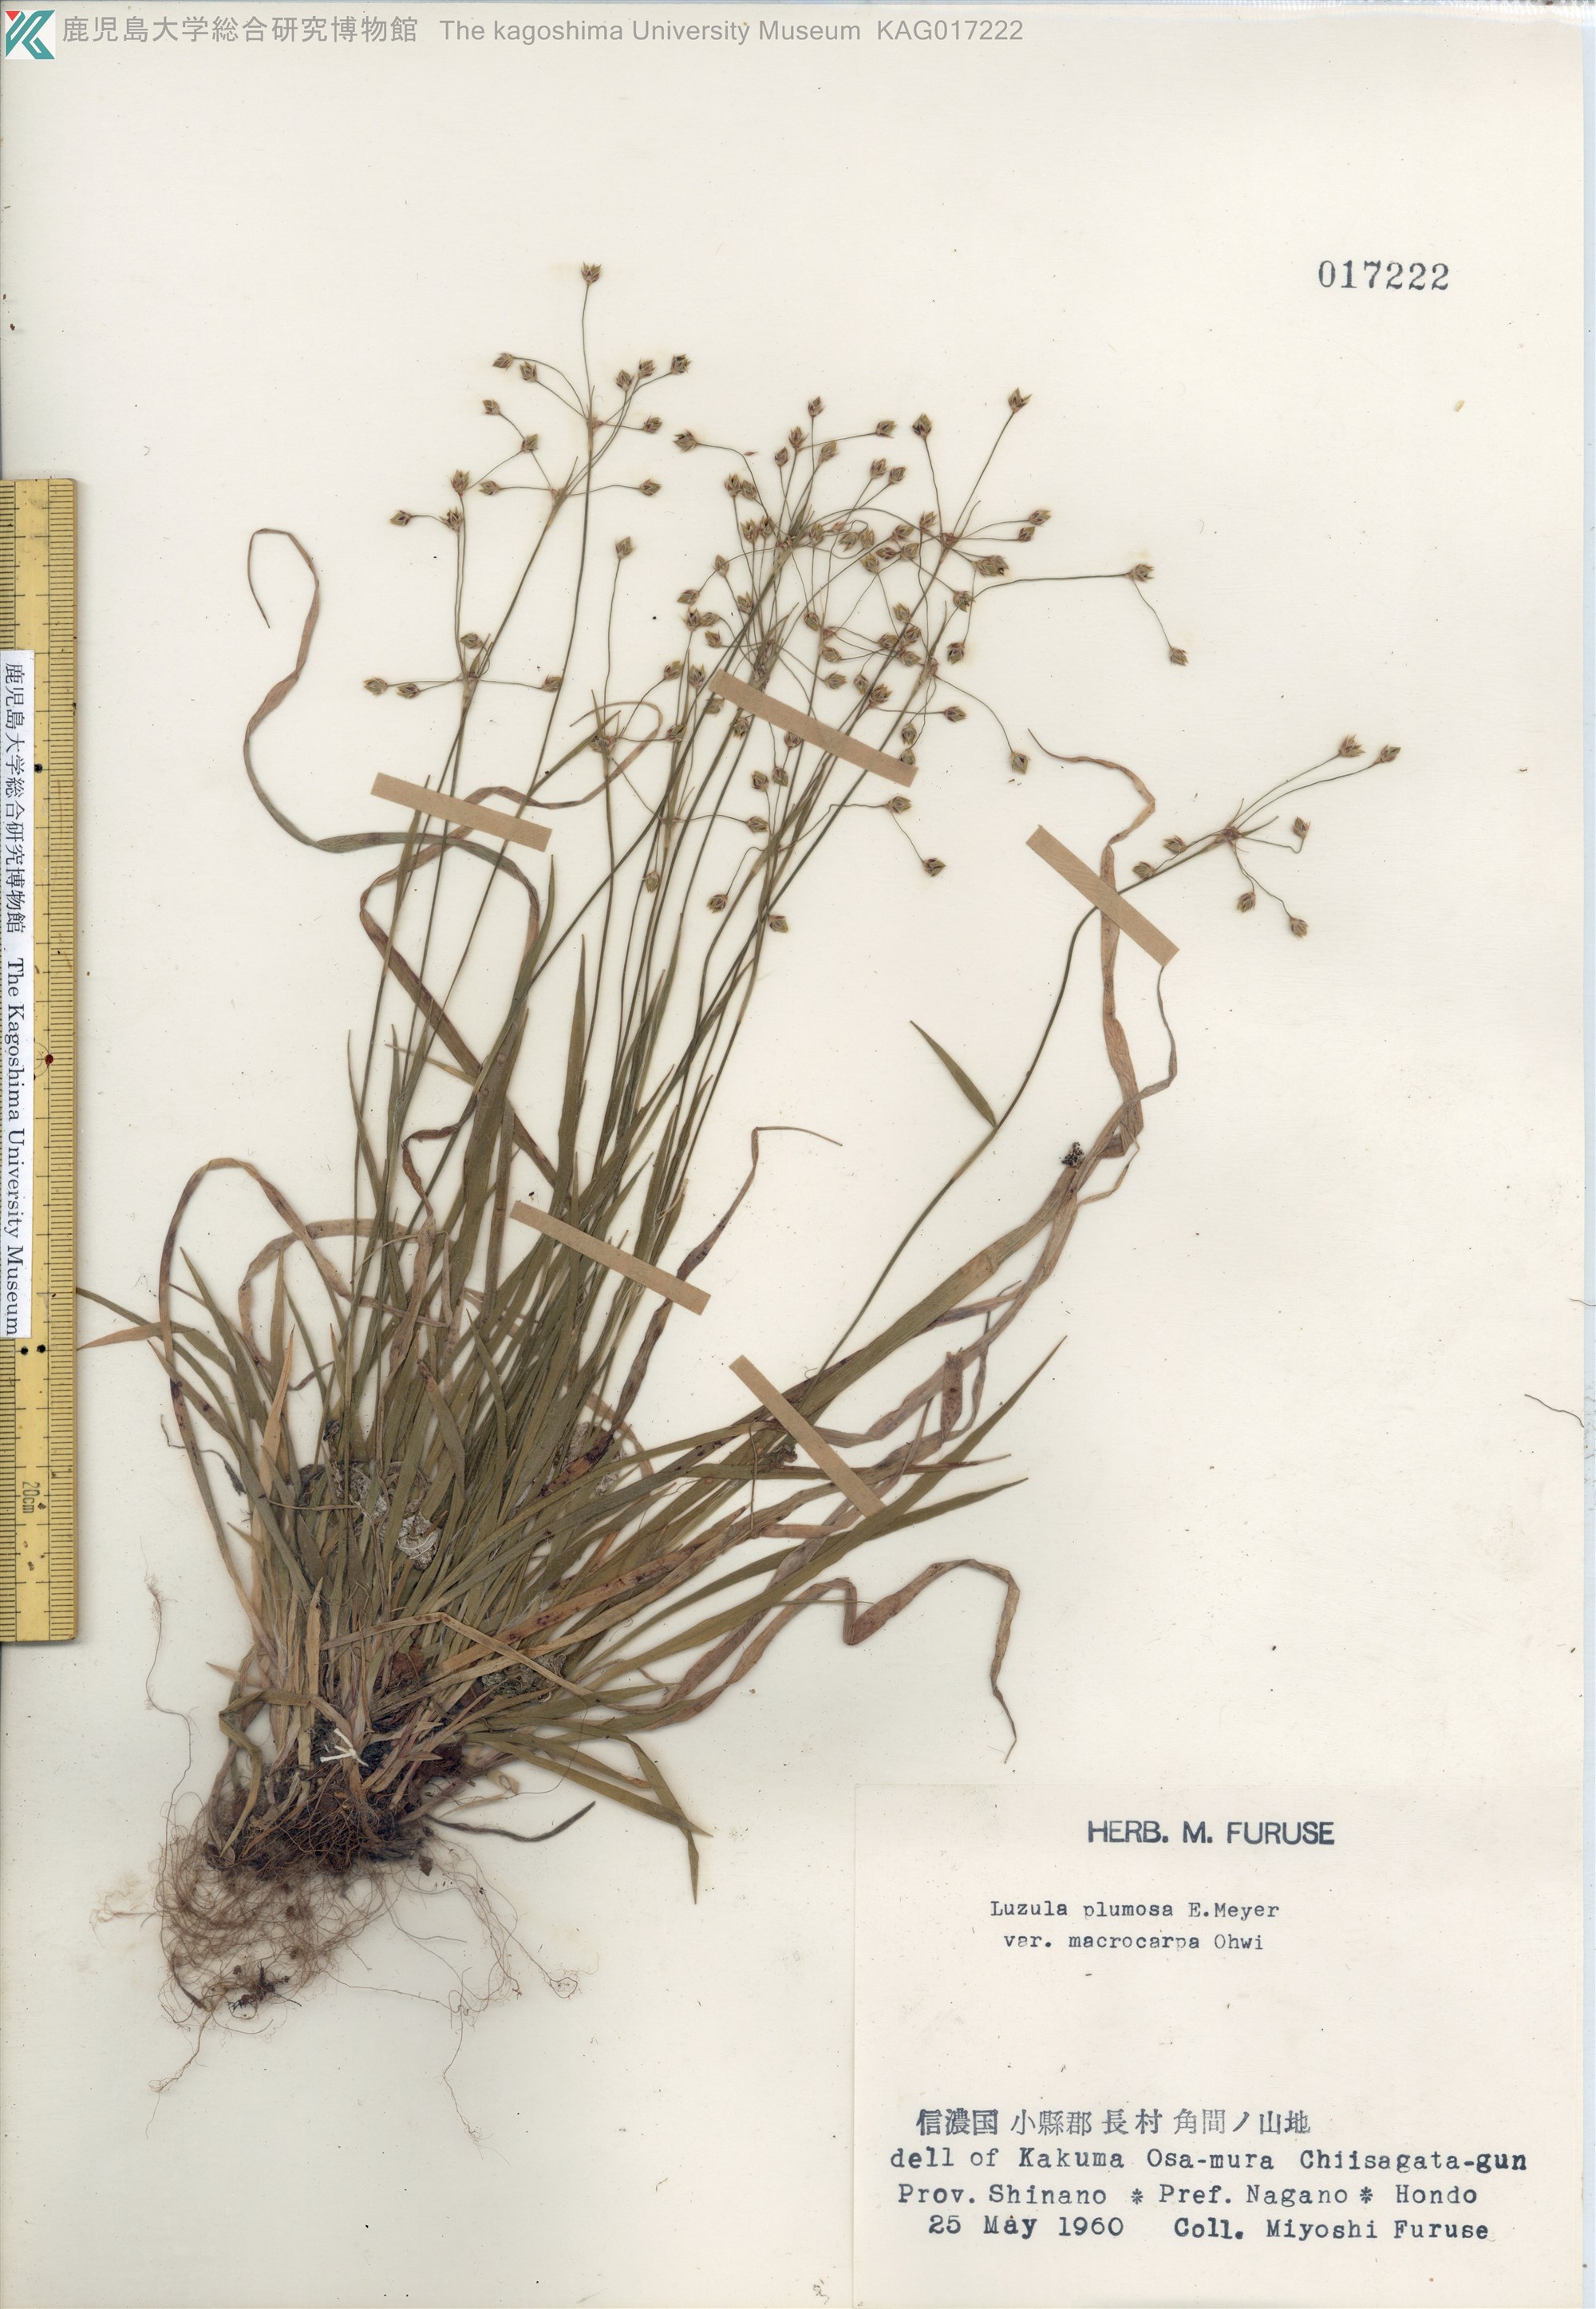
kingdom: Plantae
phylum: Tracheophyta
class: Liliopsida
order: Poales
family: Juncaceae
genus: Luzula
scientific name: Luzula plumosa
